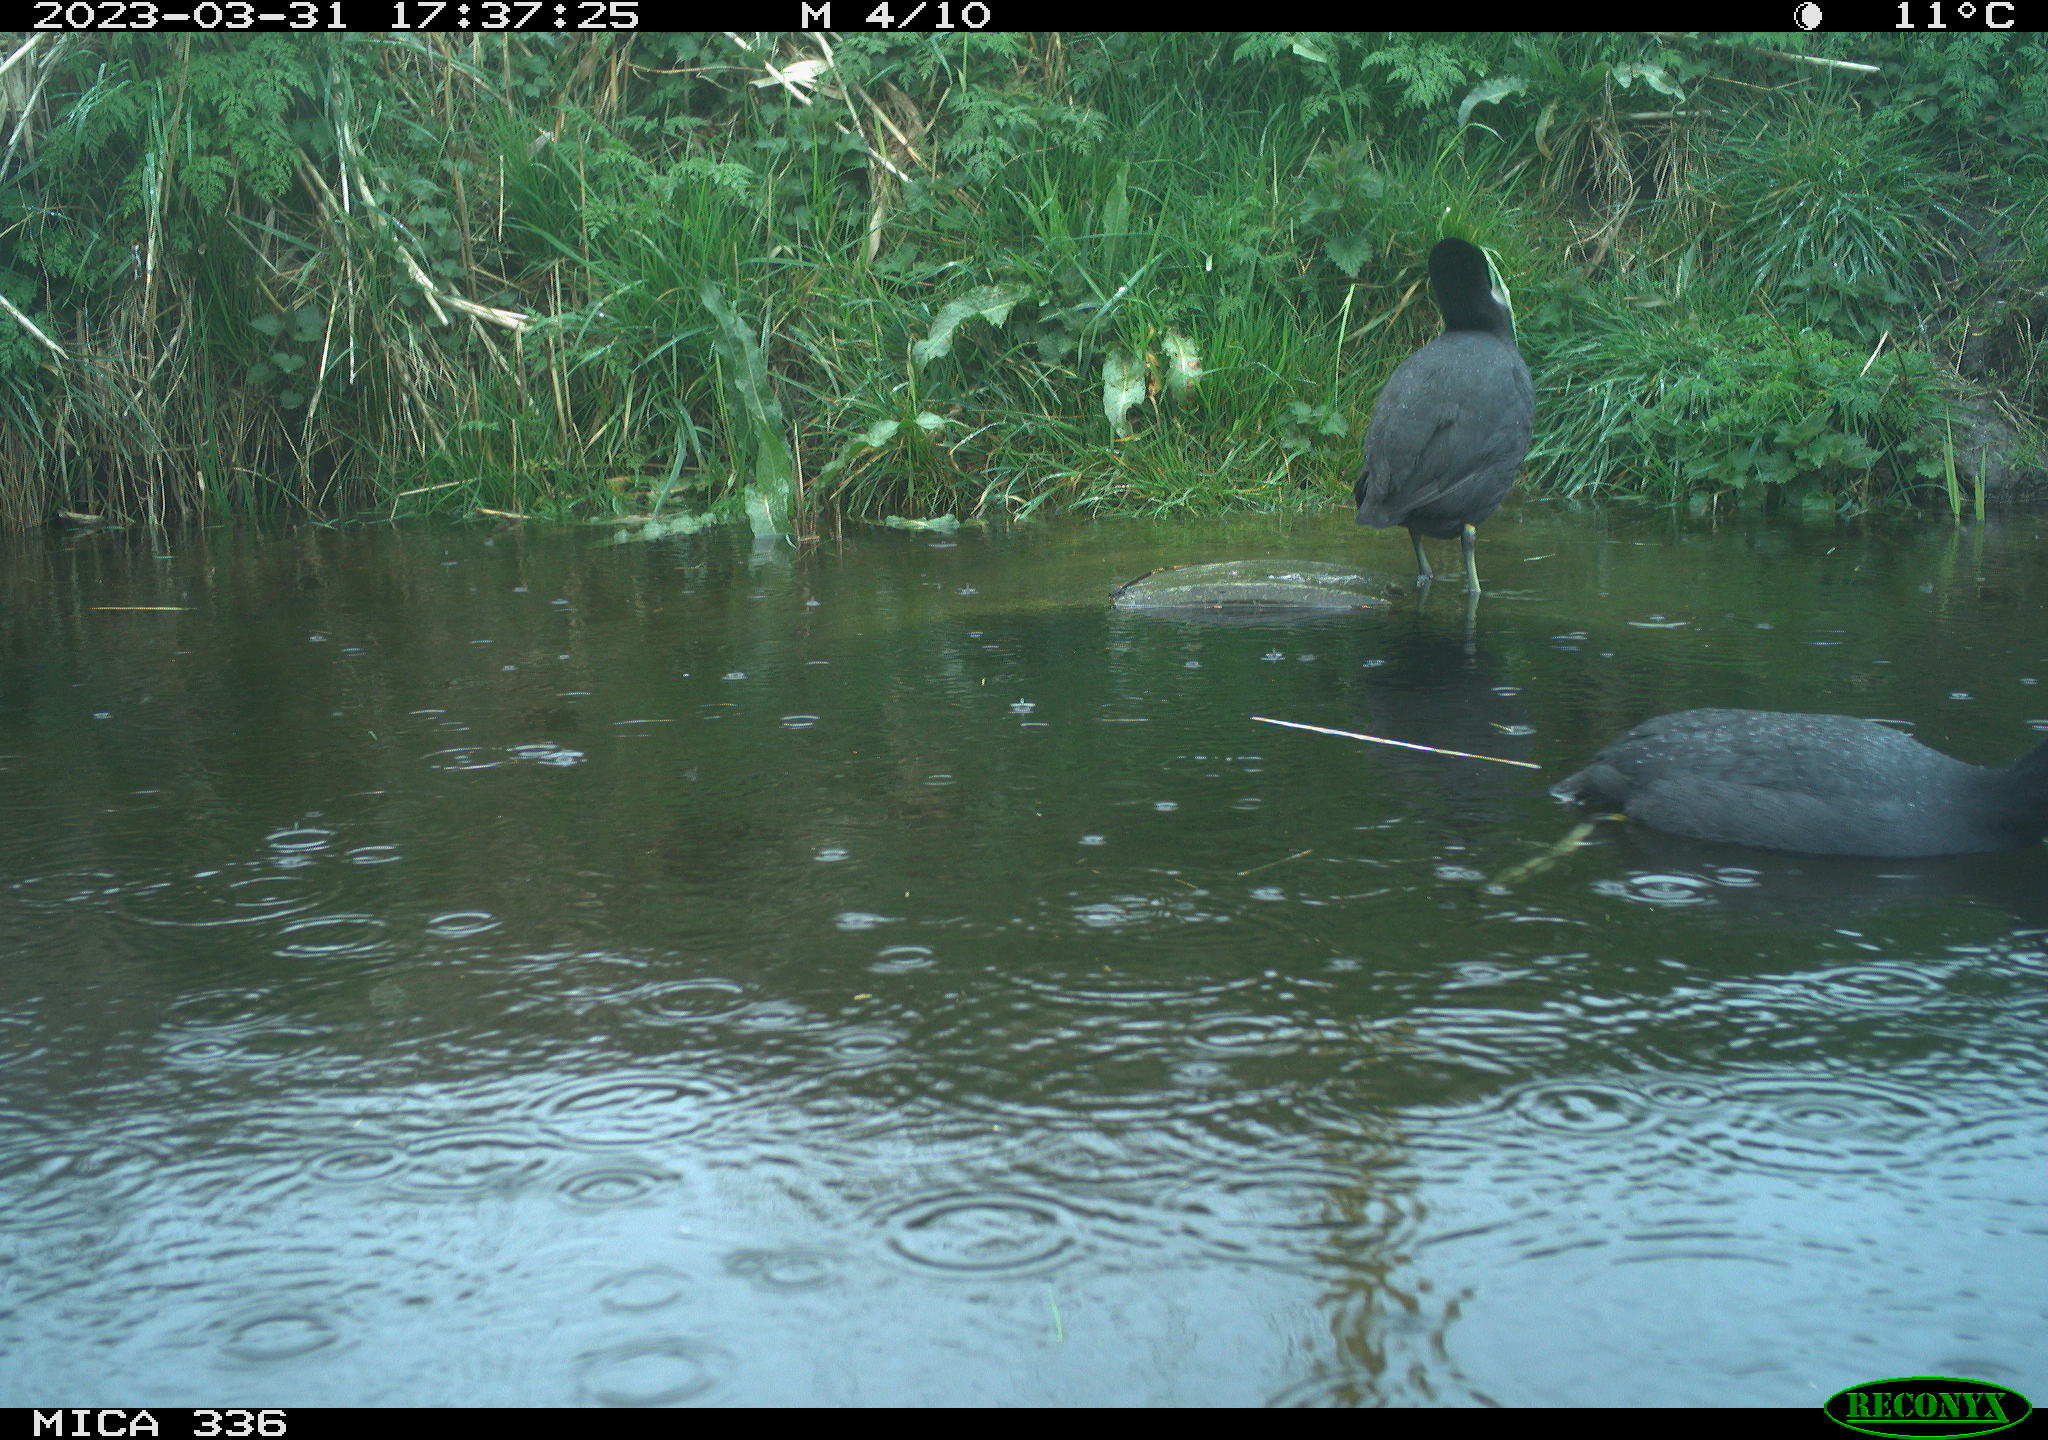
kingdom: Animalia
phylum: Chordata
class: Aves
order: Pelecaniformes
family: Ardeidae
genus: Ardea
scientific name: Ardea
